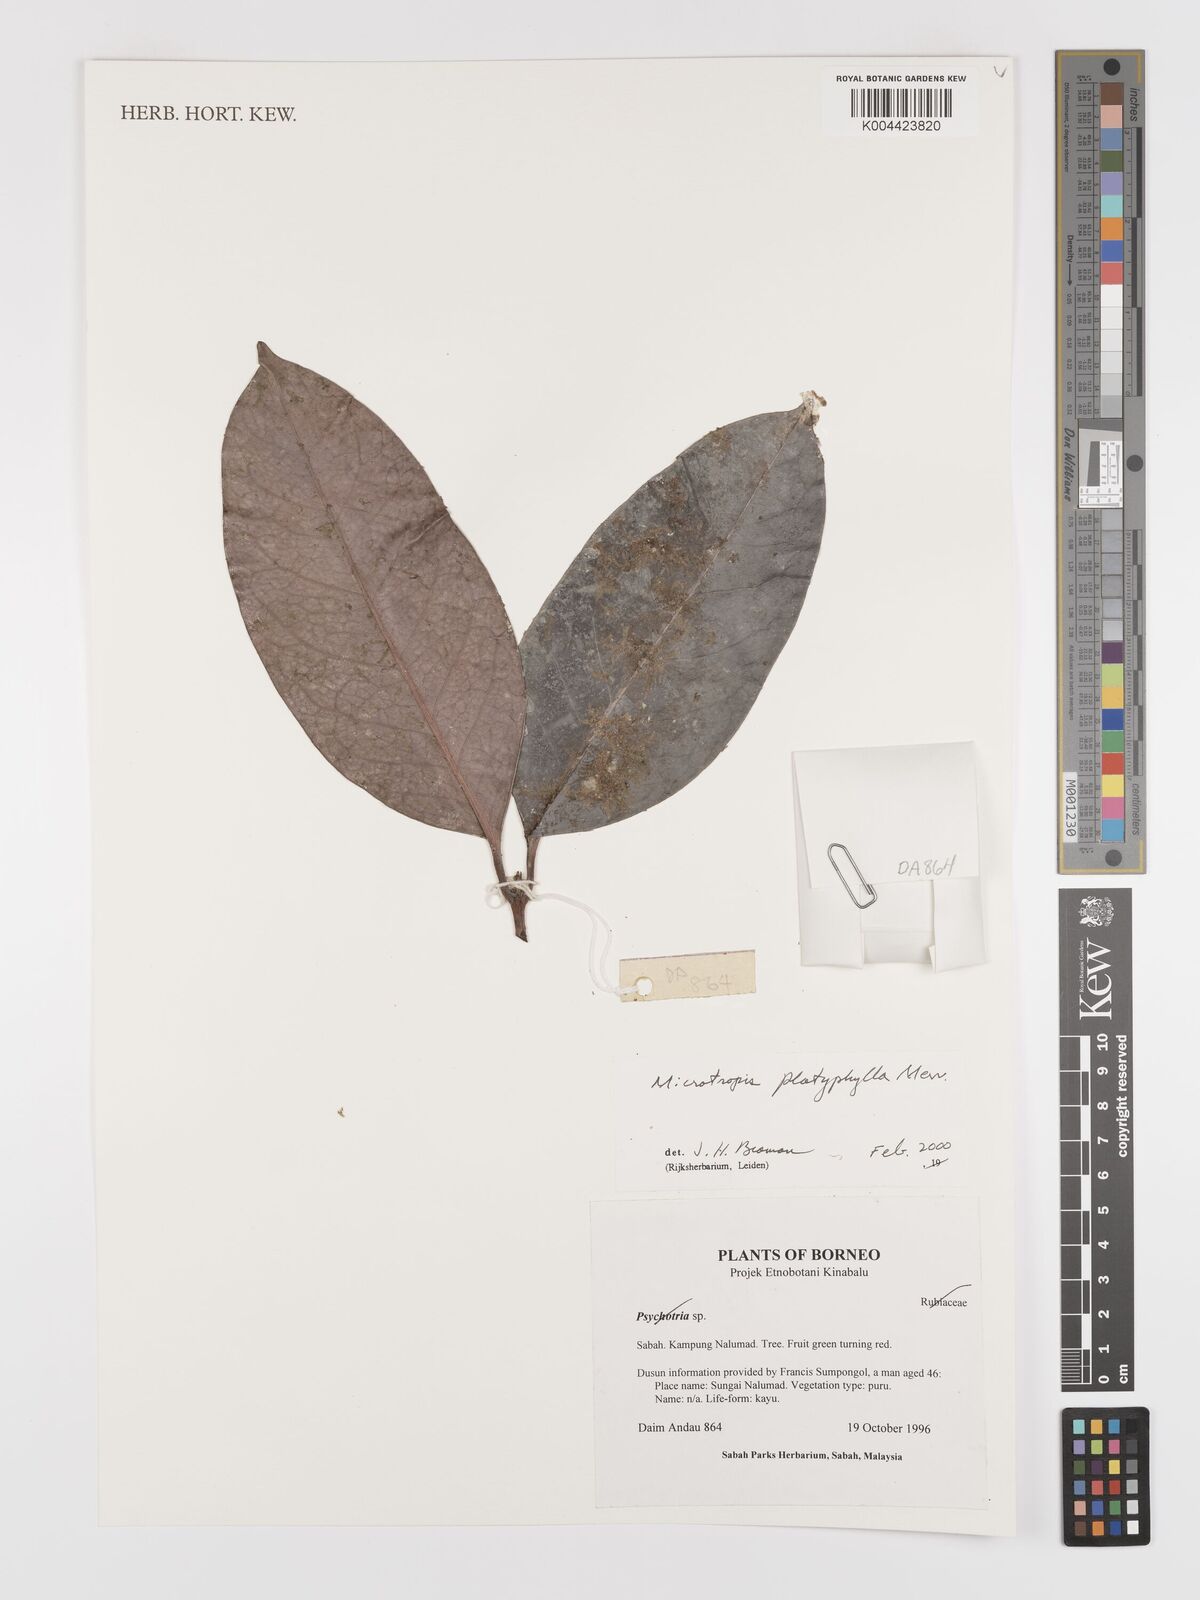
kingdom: Plantae
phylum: Tracheophyta
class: Magnoliopsida
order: Celastrales
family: Celastraceae
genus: Microtropis
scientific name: Microtropis platyphylla
